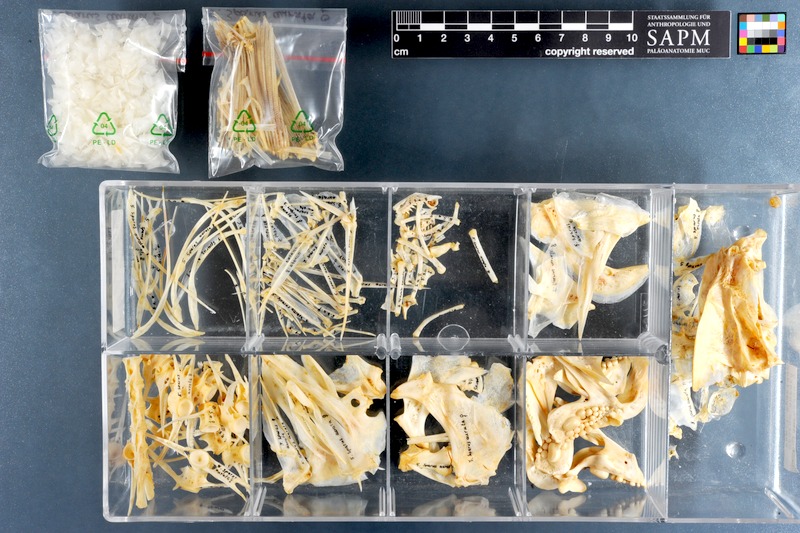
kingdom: Animalia
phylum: Chordata
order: Perciformes
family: Sparidae
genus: Sparus
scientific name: Sparus aurata
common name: Gilthead
